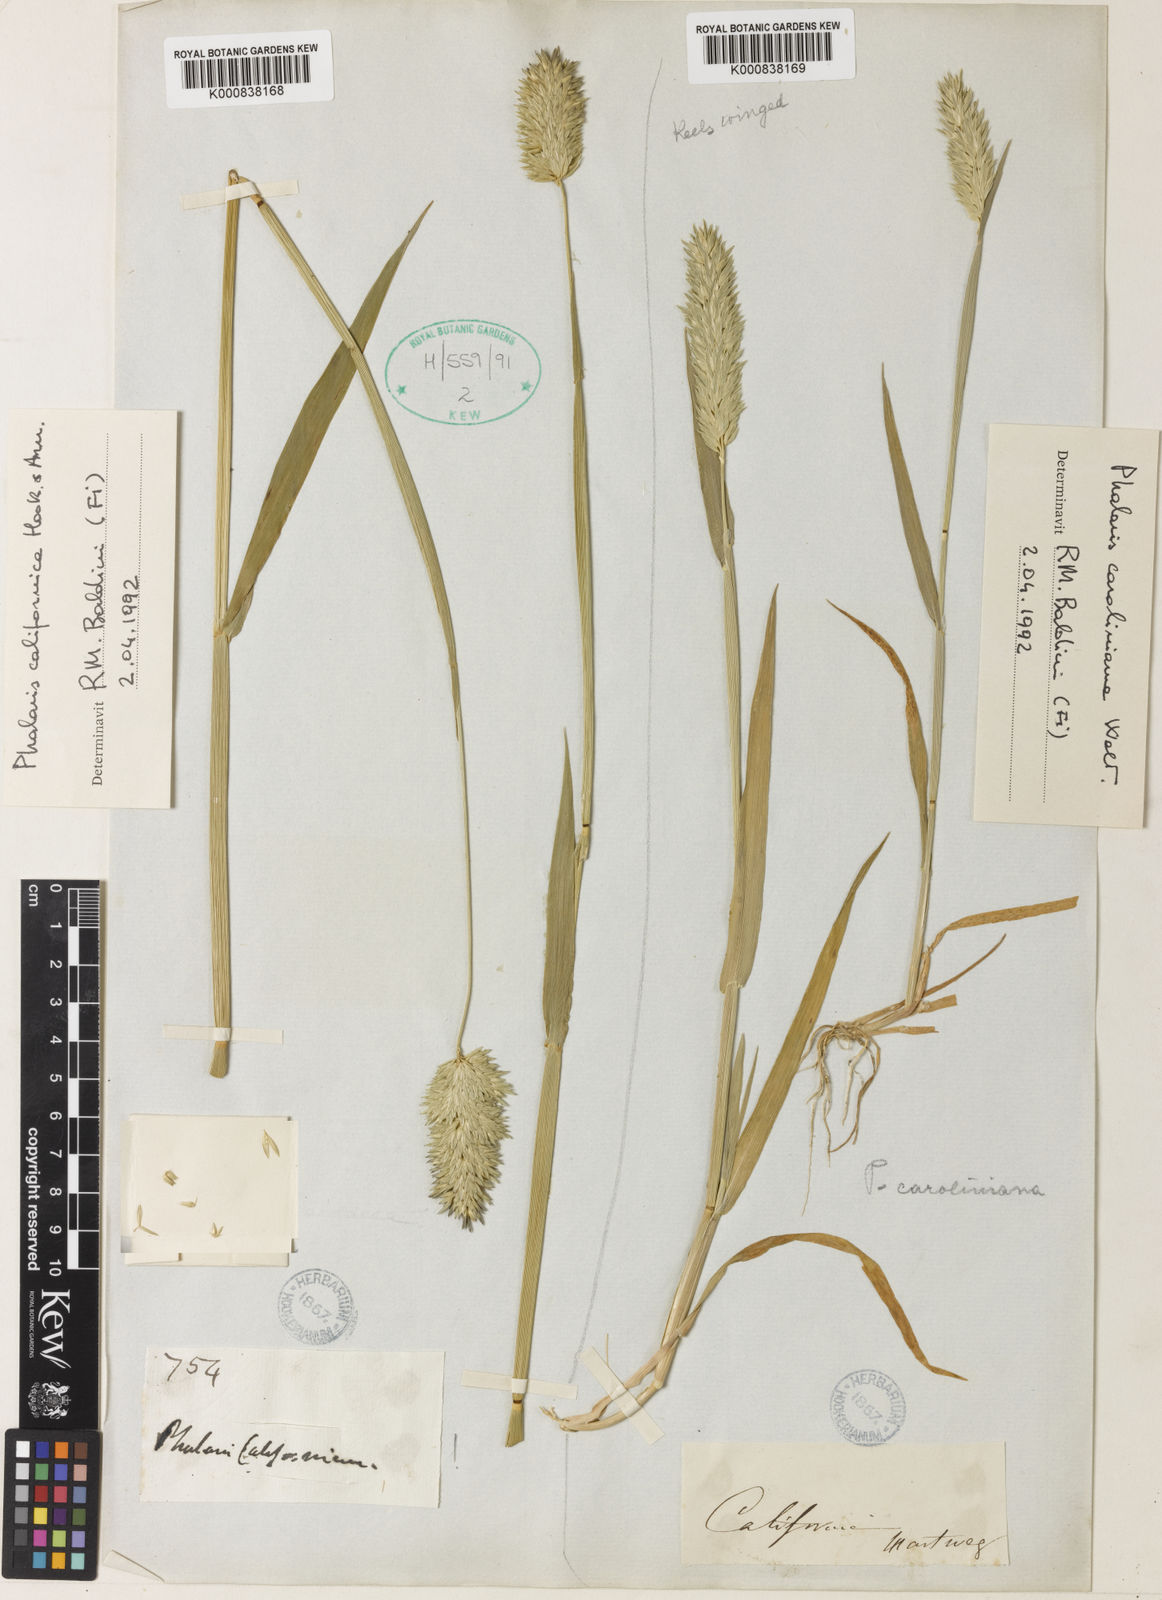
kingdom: Plantae
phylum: Tracheophyta
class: Liliopsida
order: Poales
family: Poaceae
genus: Phalaris
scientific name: Phalaris californica
